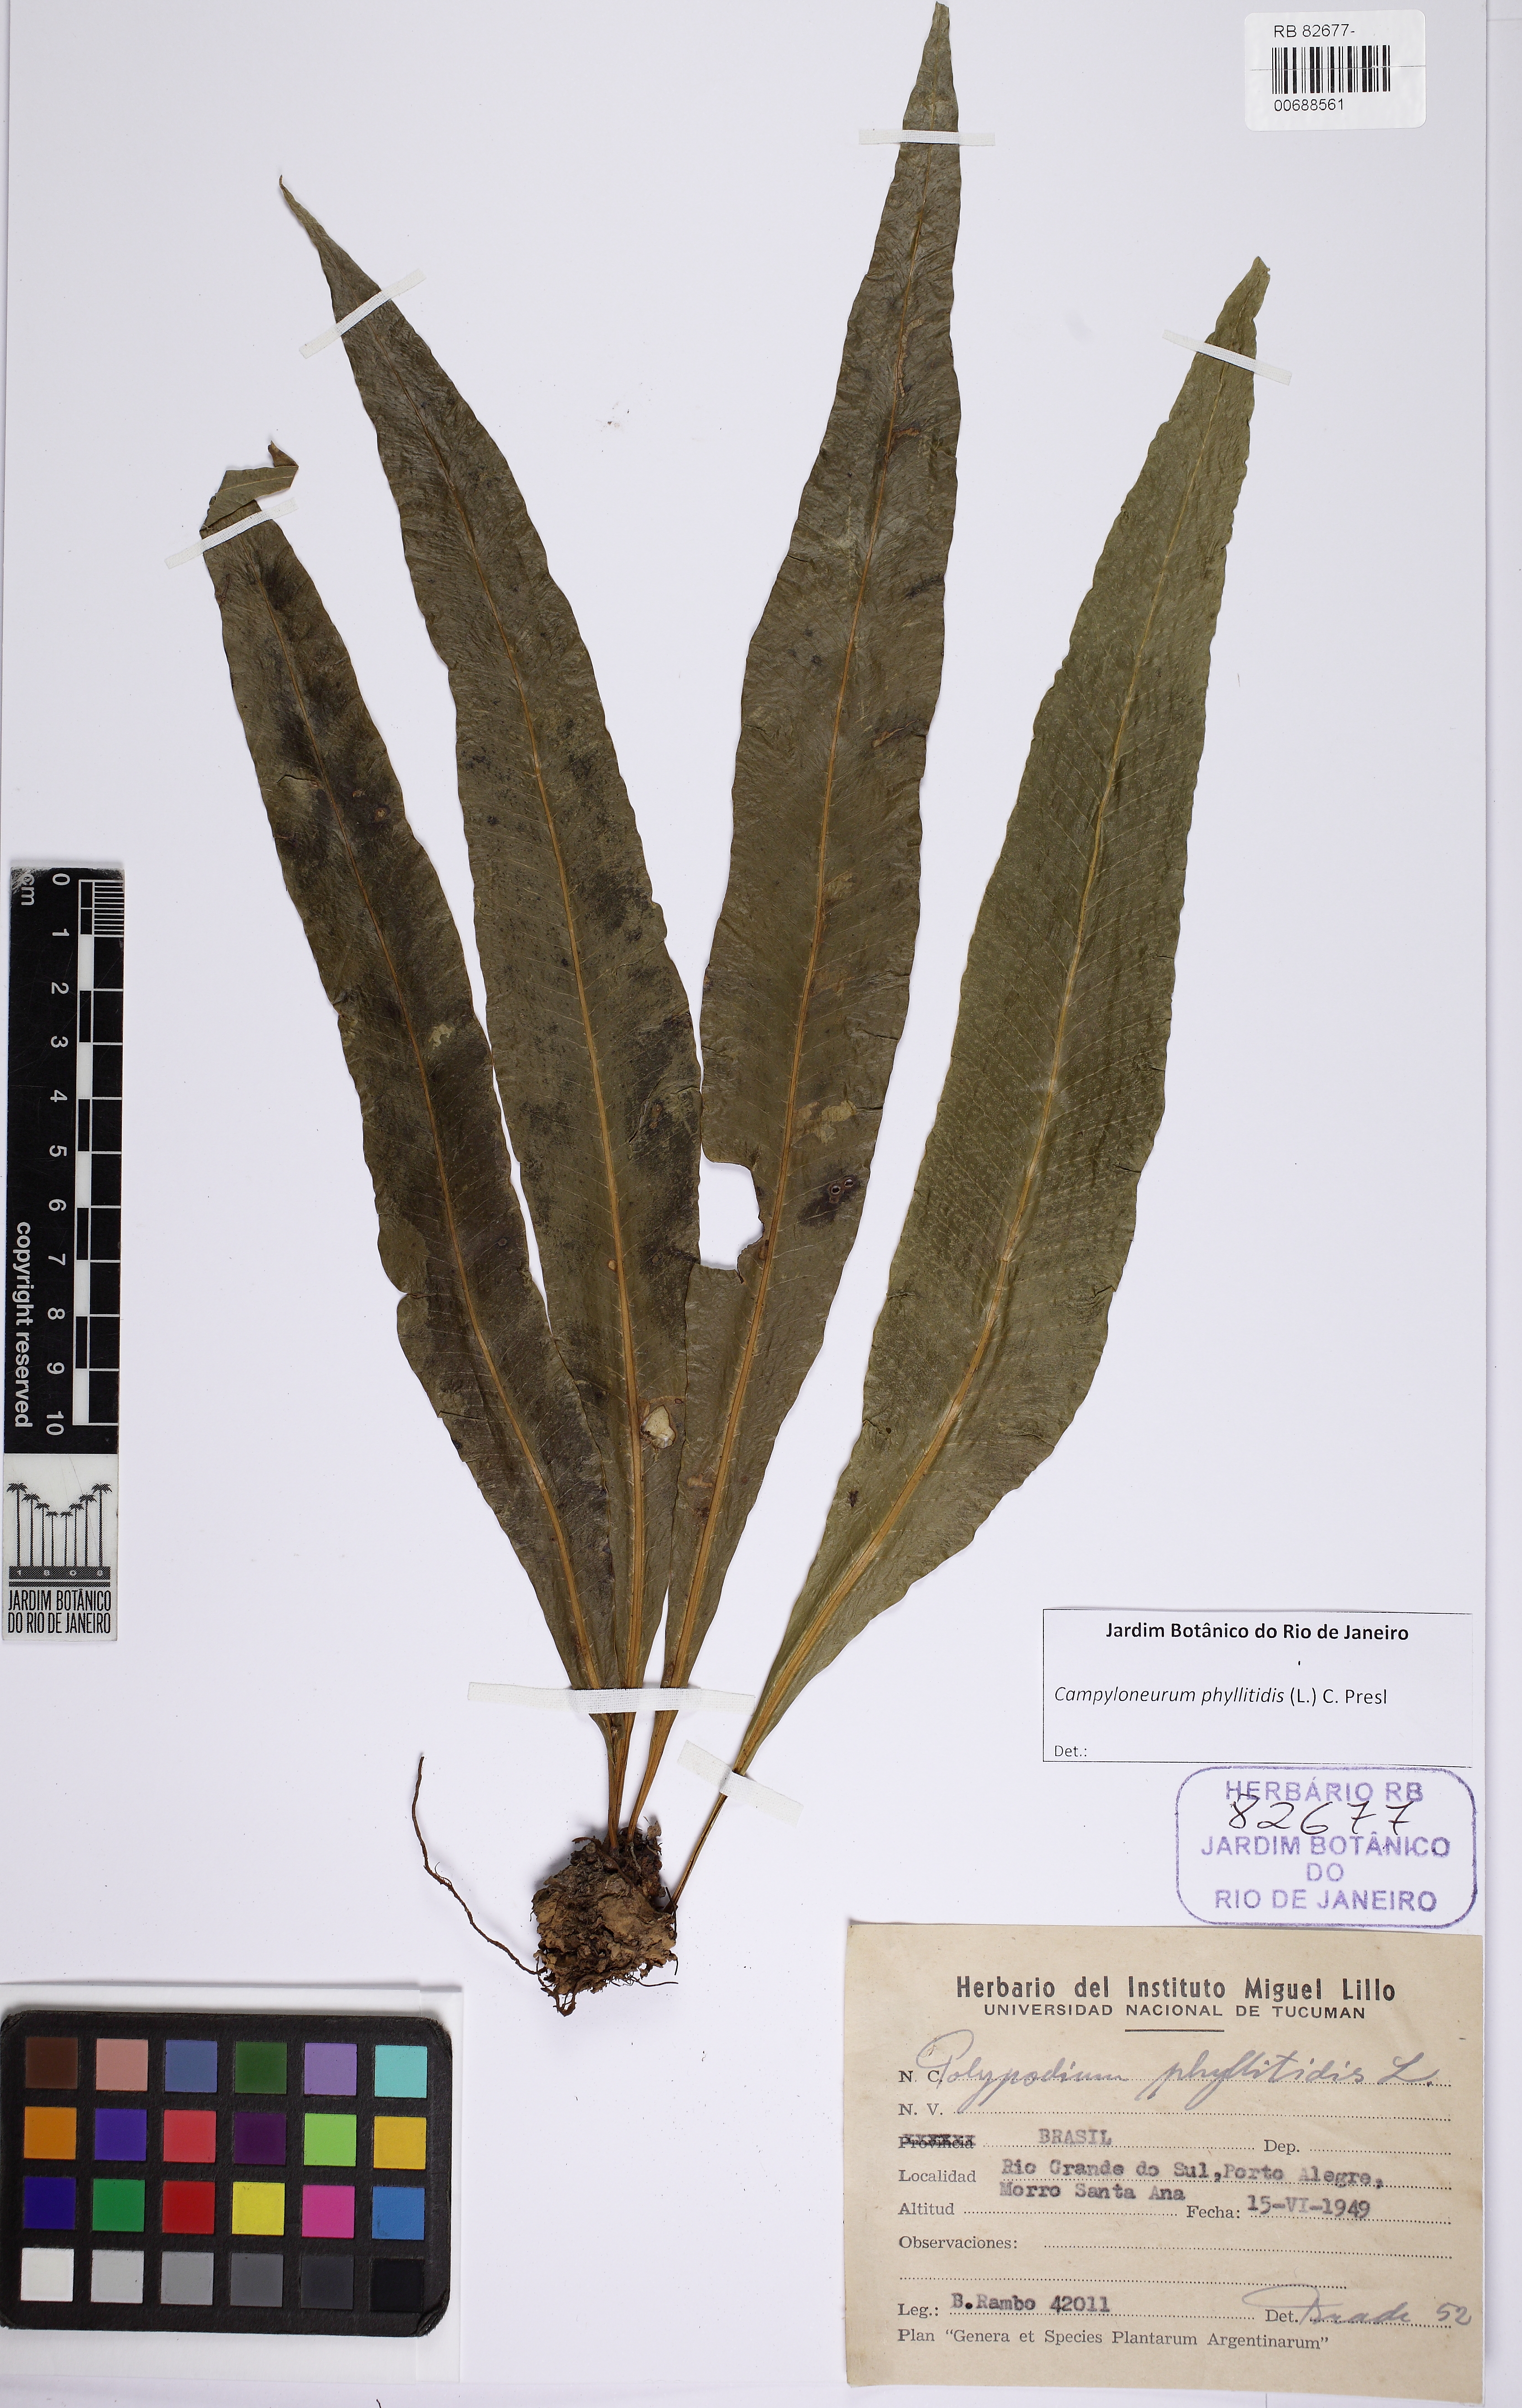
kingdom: Plantae
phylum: Tracheophyta
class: Polypodiopsida
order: Polypodiales
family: Polypodiaceae
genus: Campyloneurum
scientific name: Campyloneurum phyllitidis
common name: Cow-tongue fern
